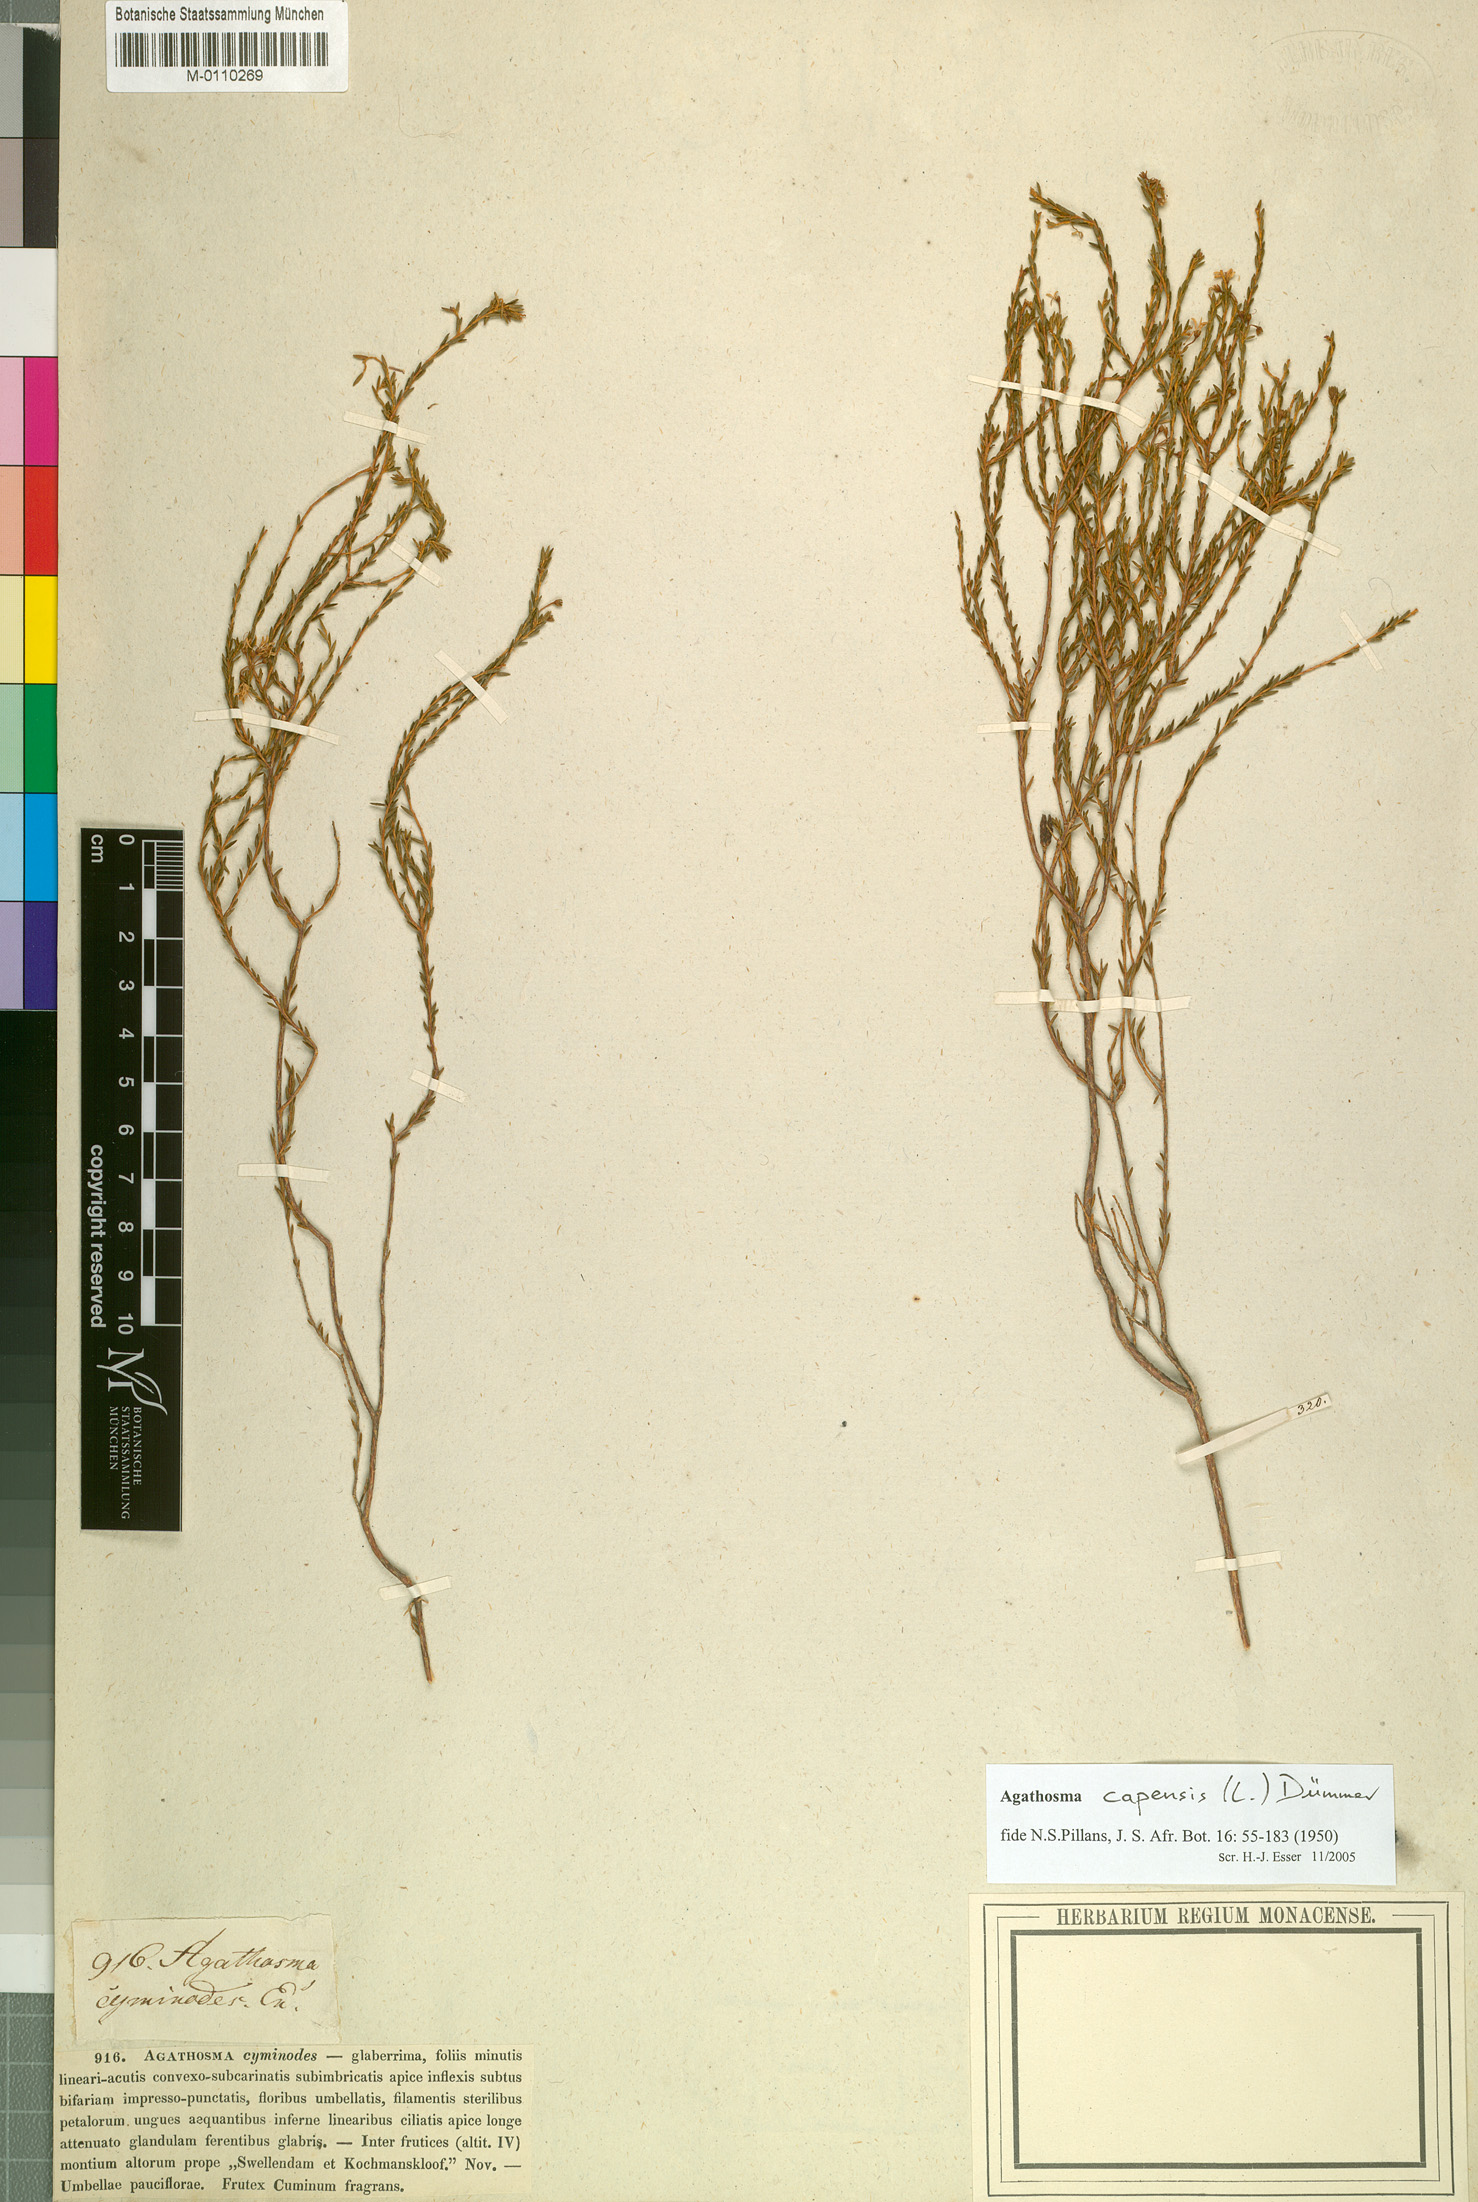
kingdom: Plantae
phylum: Tracheophyta
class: Magnoliopsida
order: Sapindales
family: Rutaceae
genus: Agathosma
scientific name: Agathosma capensis
